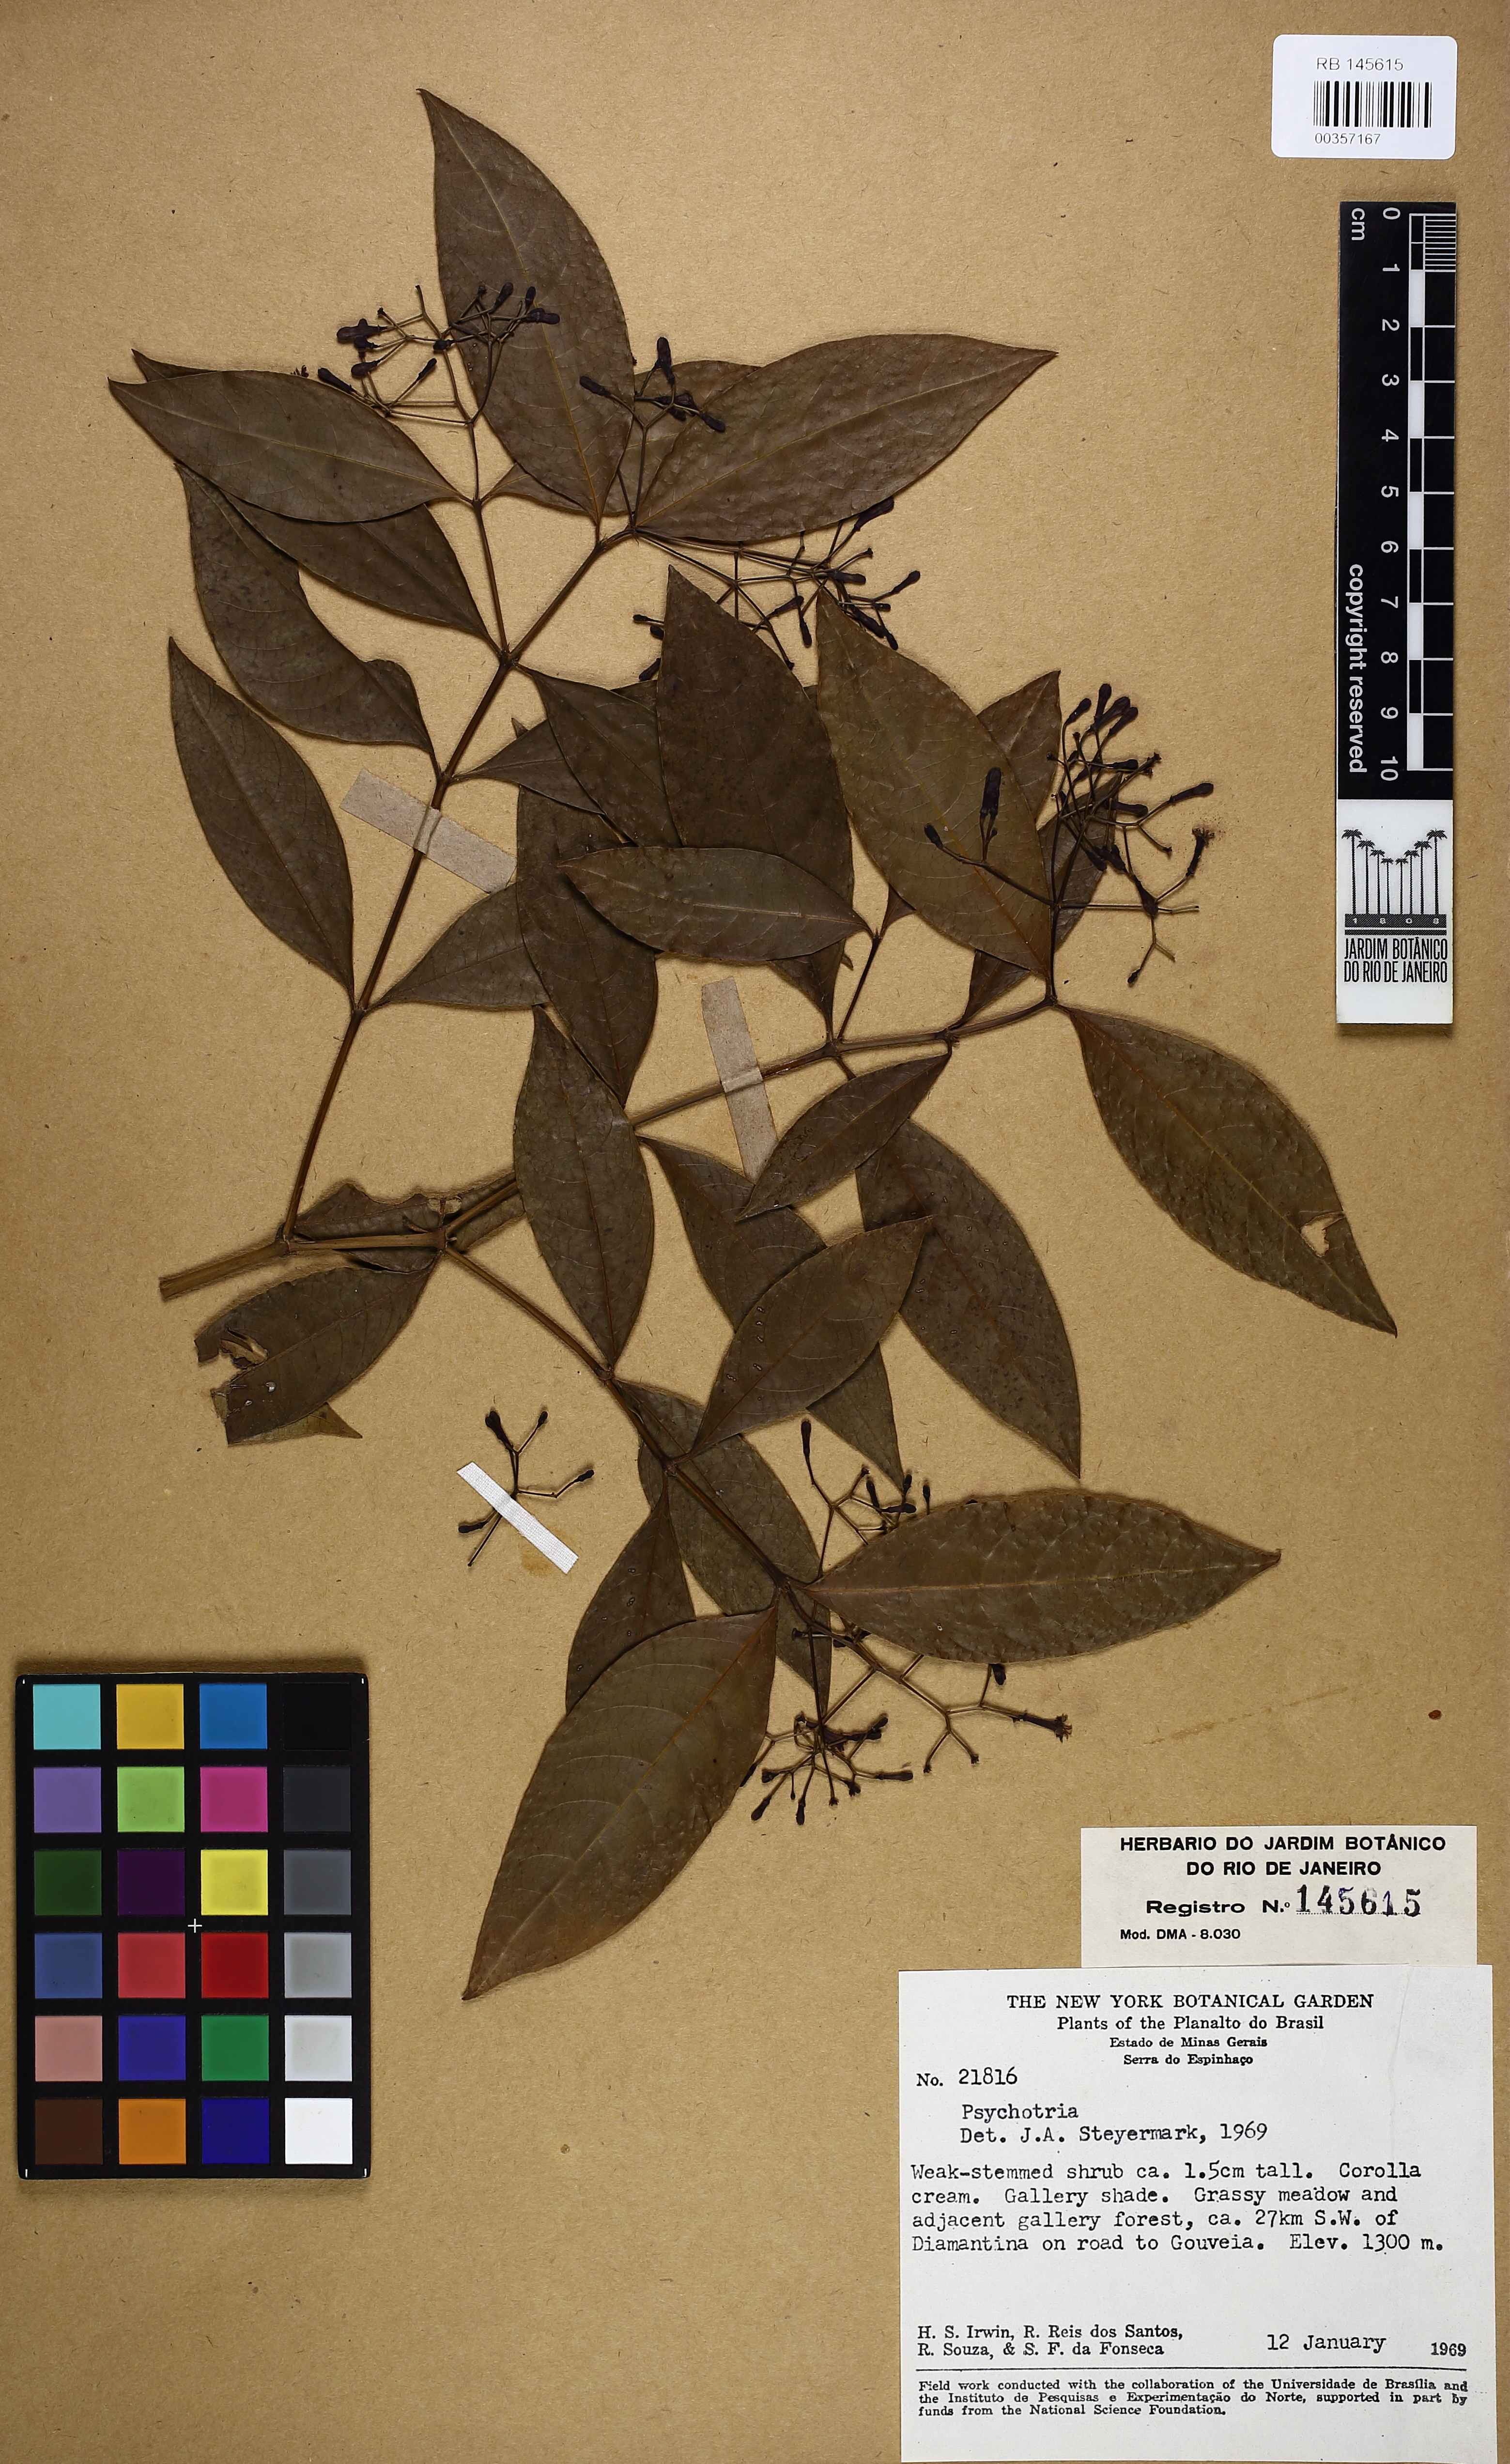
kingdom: Plantae
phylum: Tracheophyta
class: Magnoliopsida
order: Gentianales
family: Rubiaceae
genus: Psychotria
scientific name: Psychotria nemorosa
